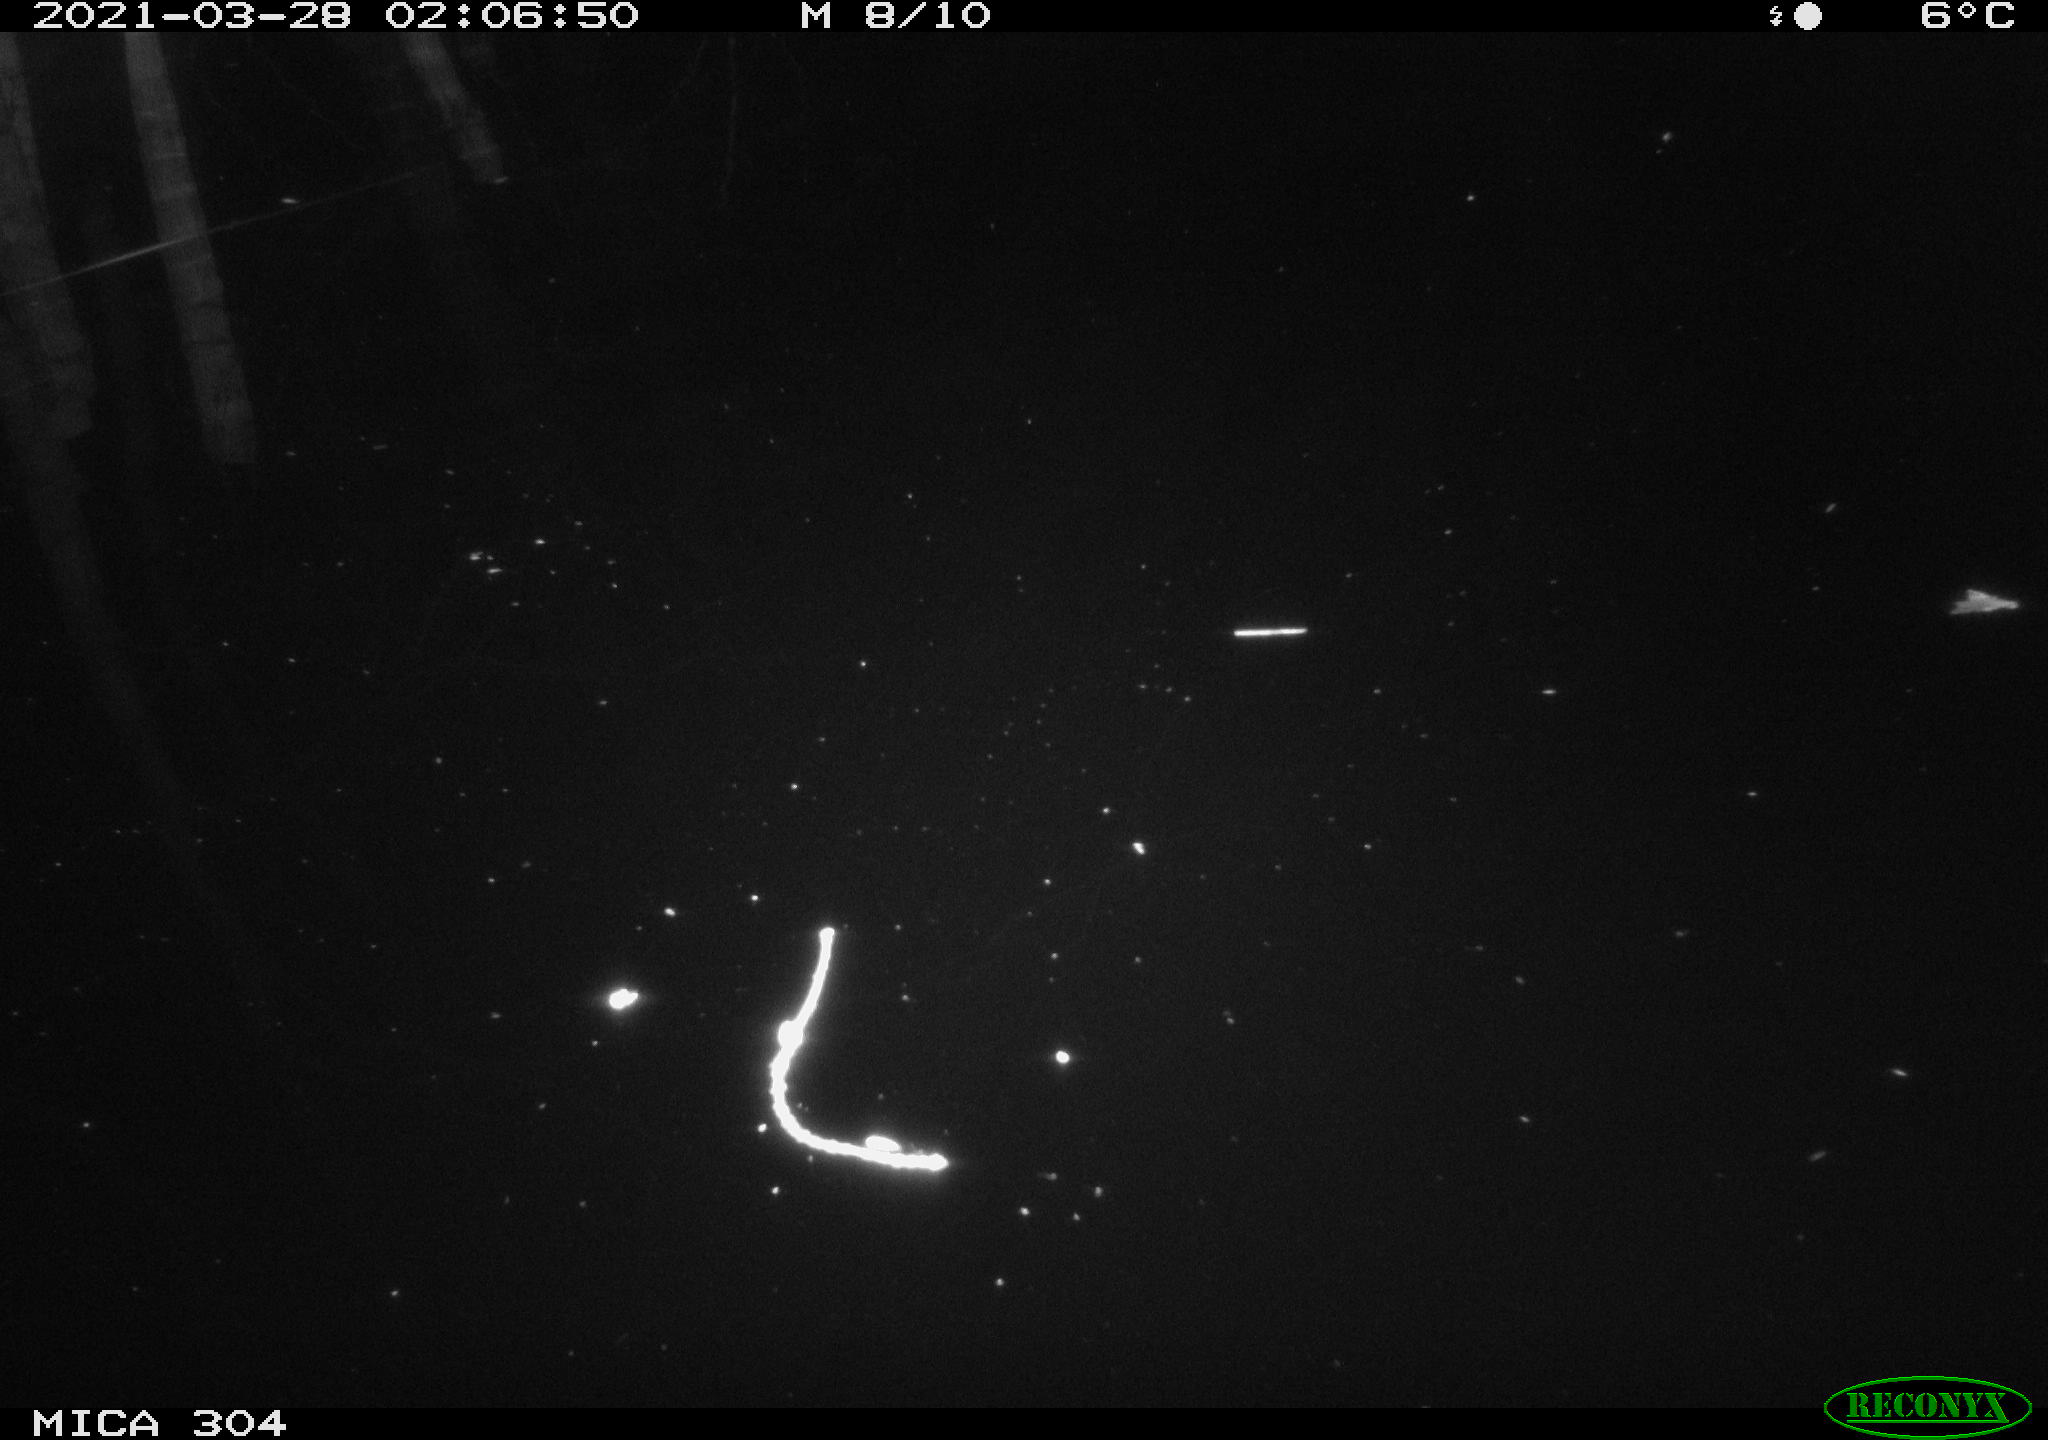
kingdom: Animalia
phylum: Chordata
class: Aves
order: Gruiformes
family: Rallidae
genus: Fulica
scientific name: Fulica atra
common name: Eurasian coot
